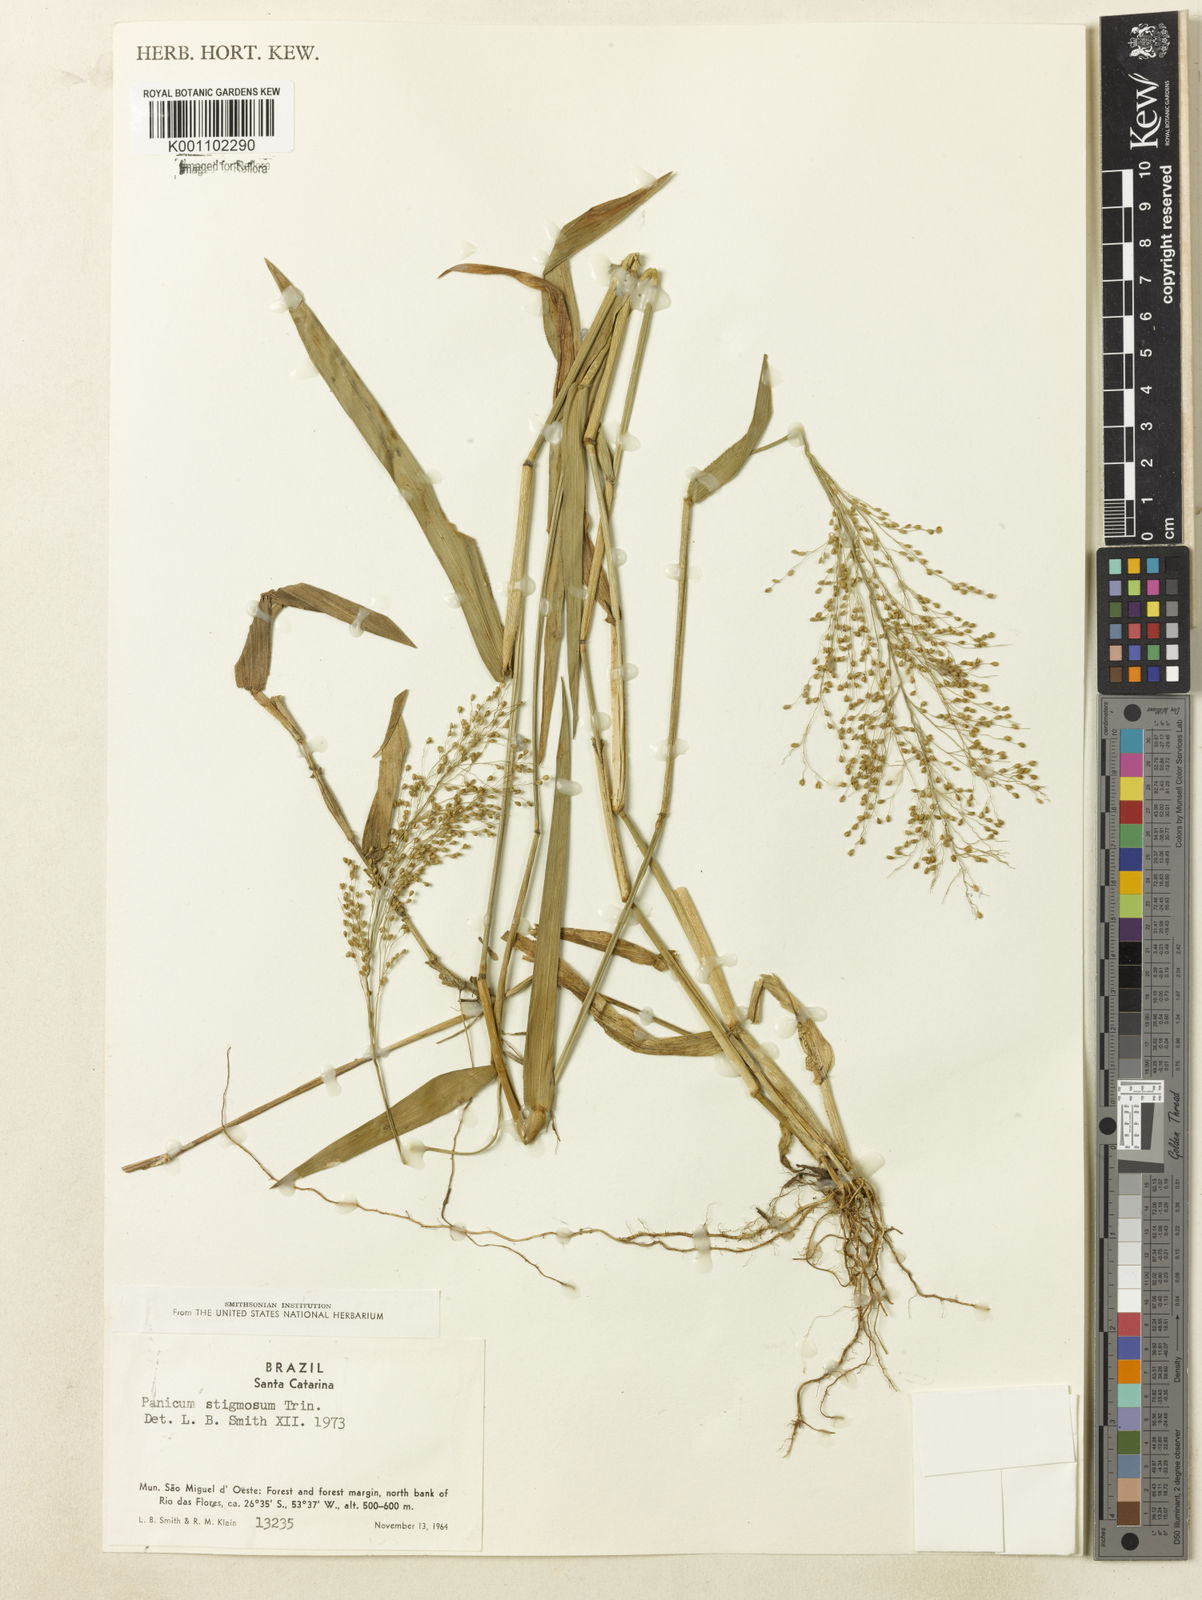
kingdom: Plantae
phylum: Tracheophyta
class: Liliopsida
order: Poales
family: Poaceae
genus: Dichanthelium
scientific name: Dichanthelium stigmosum
